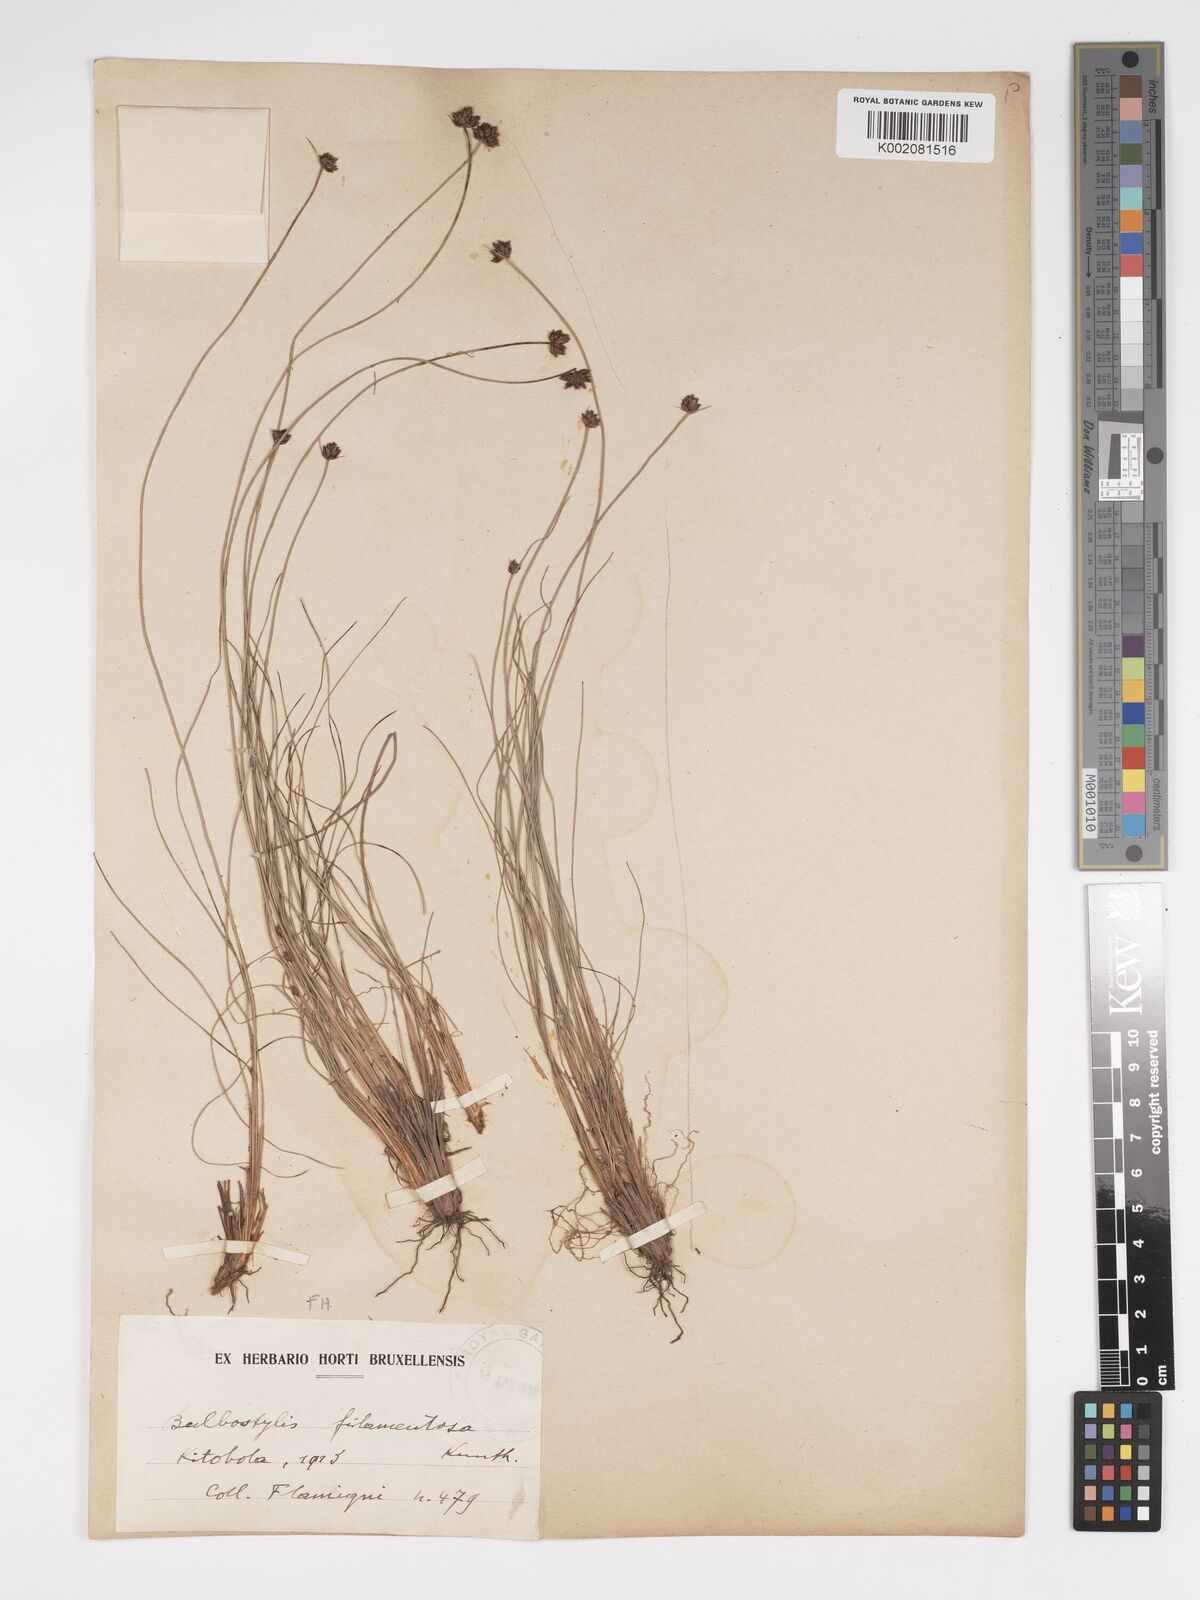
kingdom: Plantae
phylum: Tracheophyta
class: Liliopsida
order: Poales
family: Cyperaceae
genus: Bulbostylis
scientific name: Bulbostylis scabricaulis
